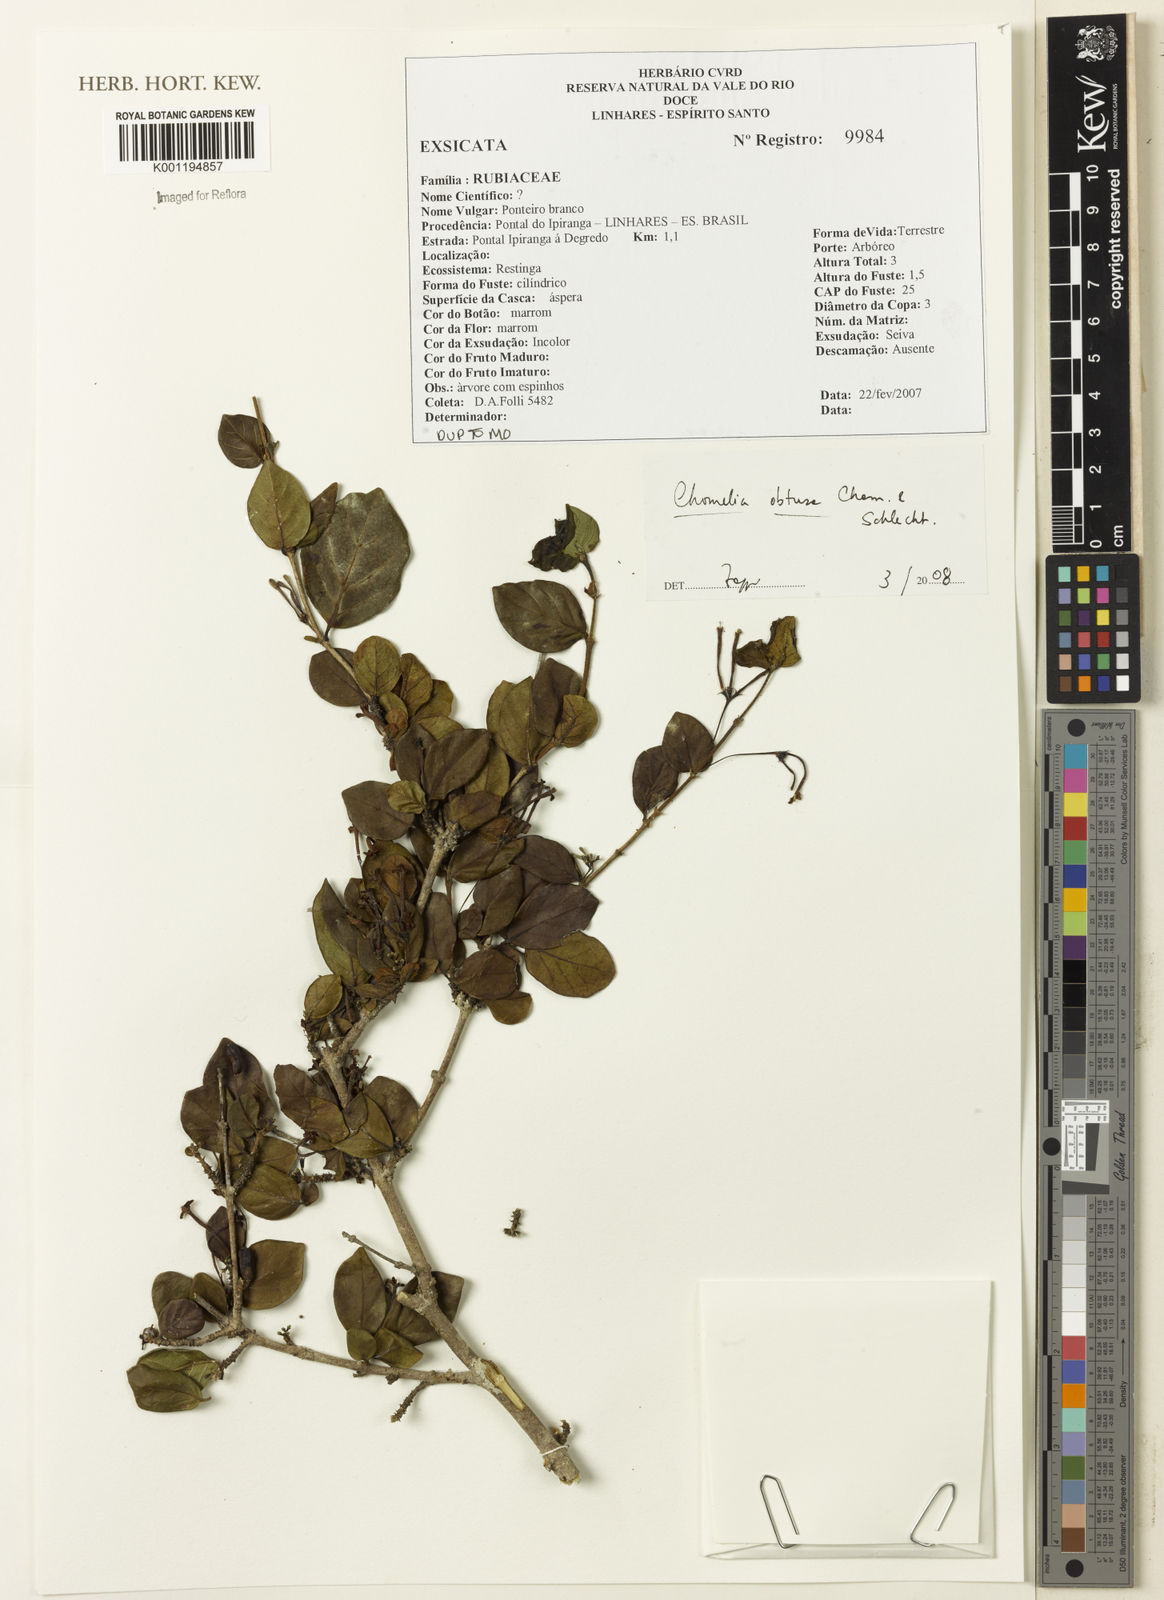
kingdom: Plantae
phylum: Tracheophyta
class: Magnoliopsida
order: Gentianales
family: Rubiaceae
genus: Chomelia
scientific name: Chomelia obtusa
